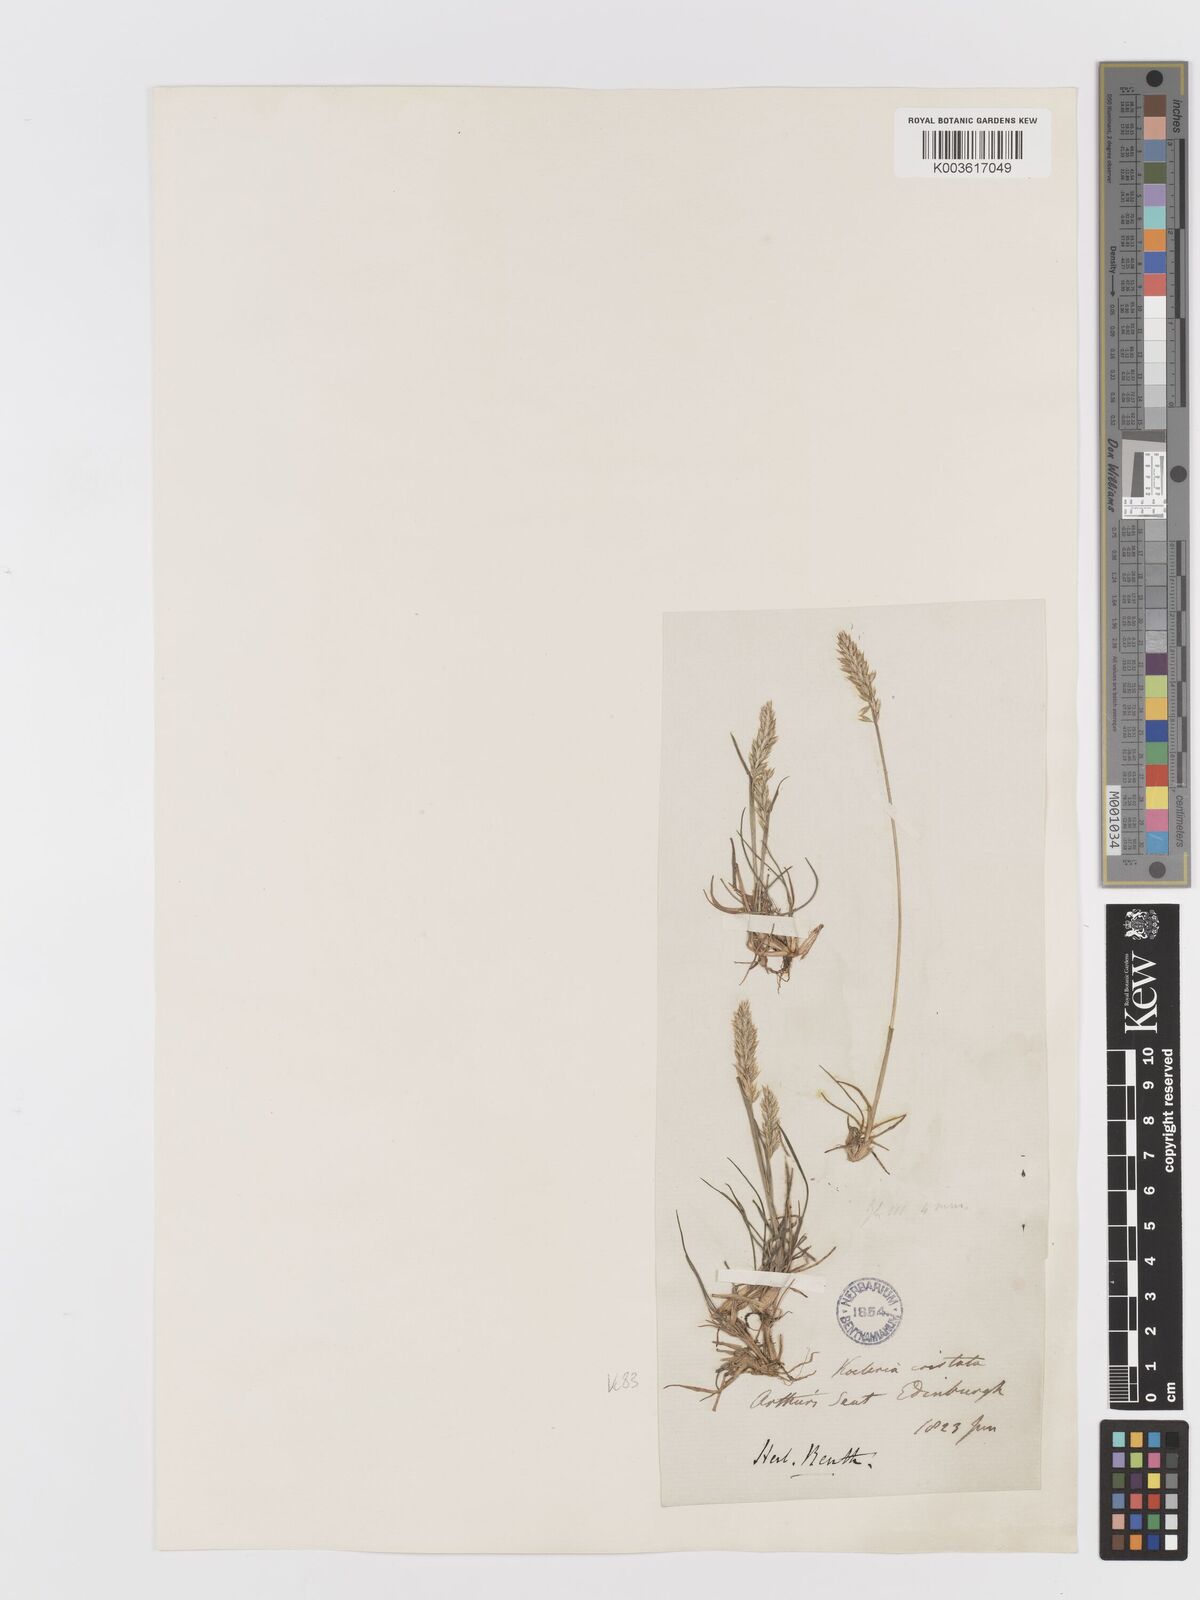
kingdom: Plantae
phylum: Tracheophyta
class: Liliopsida
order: Poales
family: Poaceae
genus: Koeleria
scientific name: Koeleria macrantha
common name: Crested hair-grass
